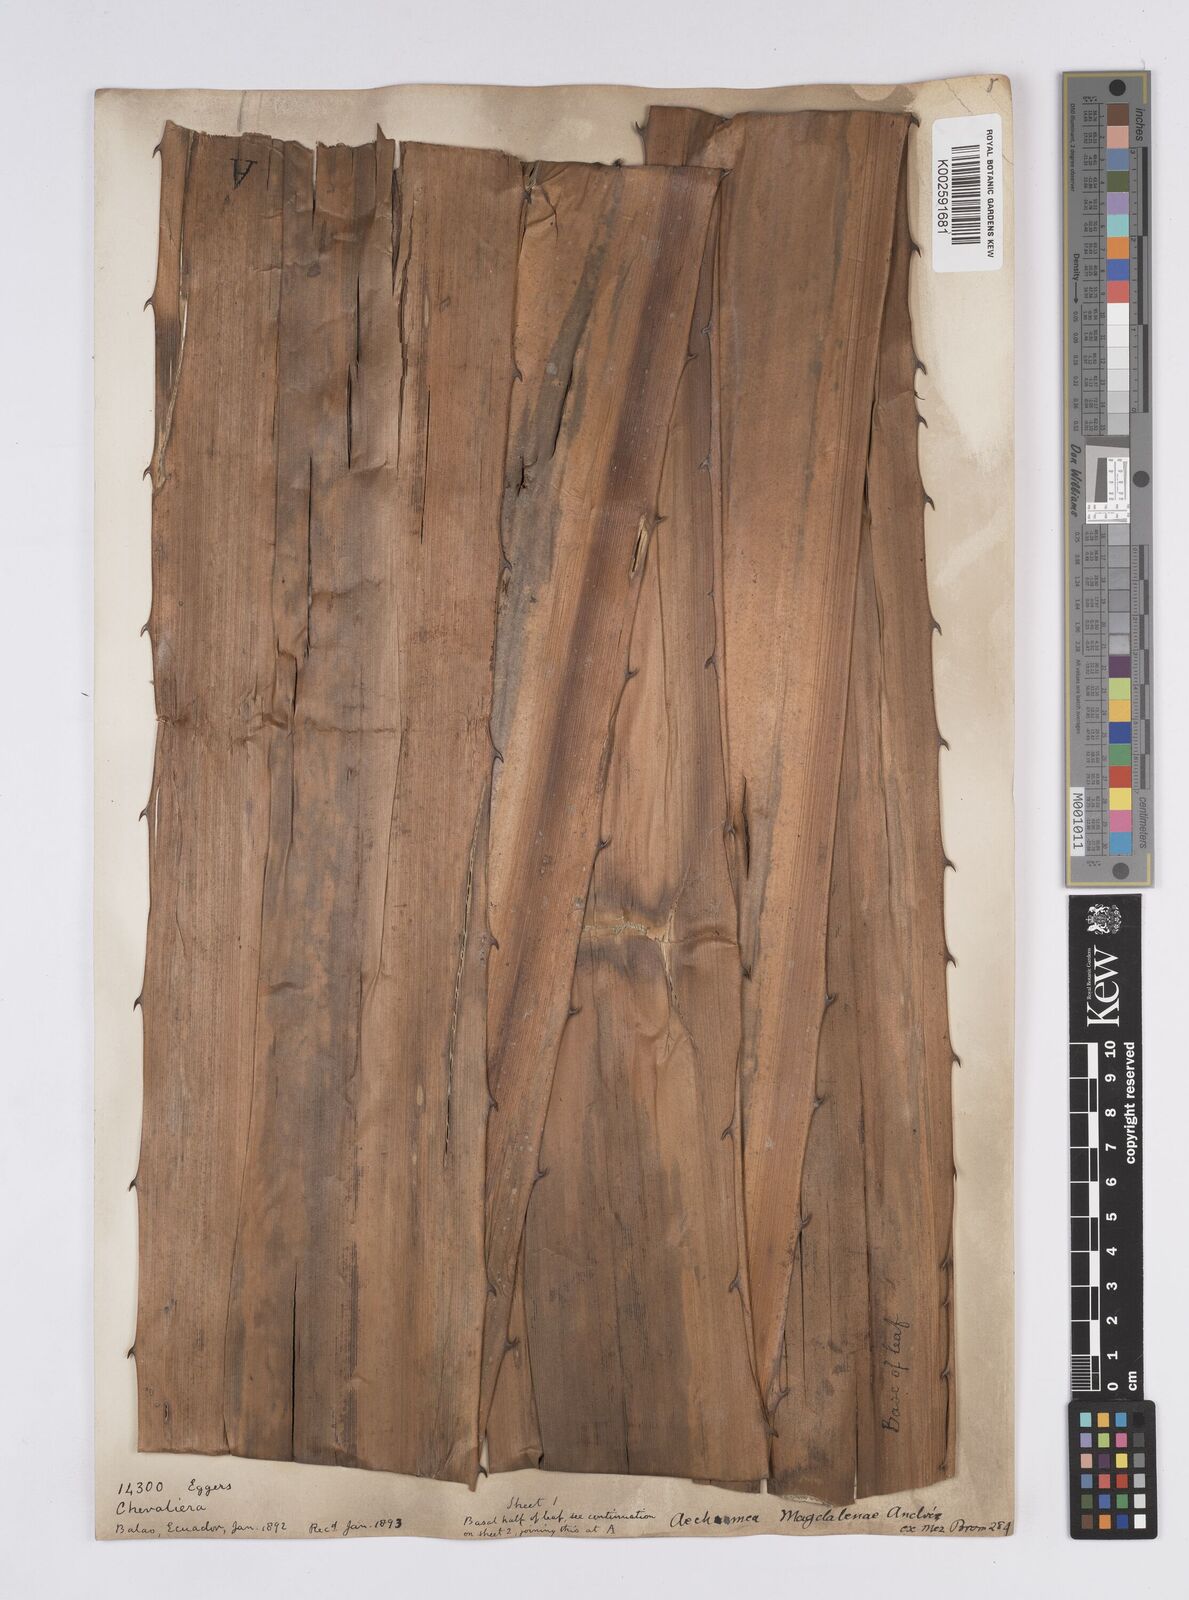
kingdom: Plantae
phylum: Tracheophyta
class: Liliopsida
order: Poales
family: Bromeliaceae
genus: Aechmea
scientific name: Aechmea magdalenae
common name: Arghan
